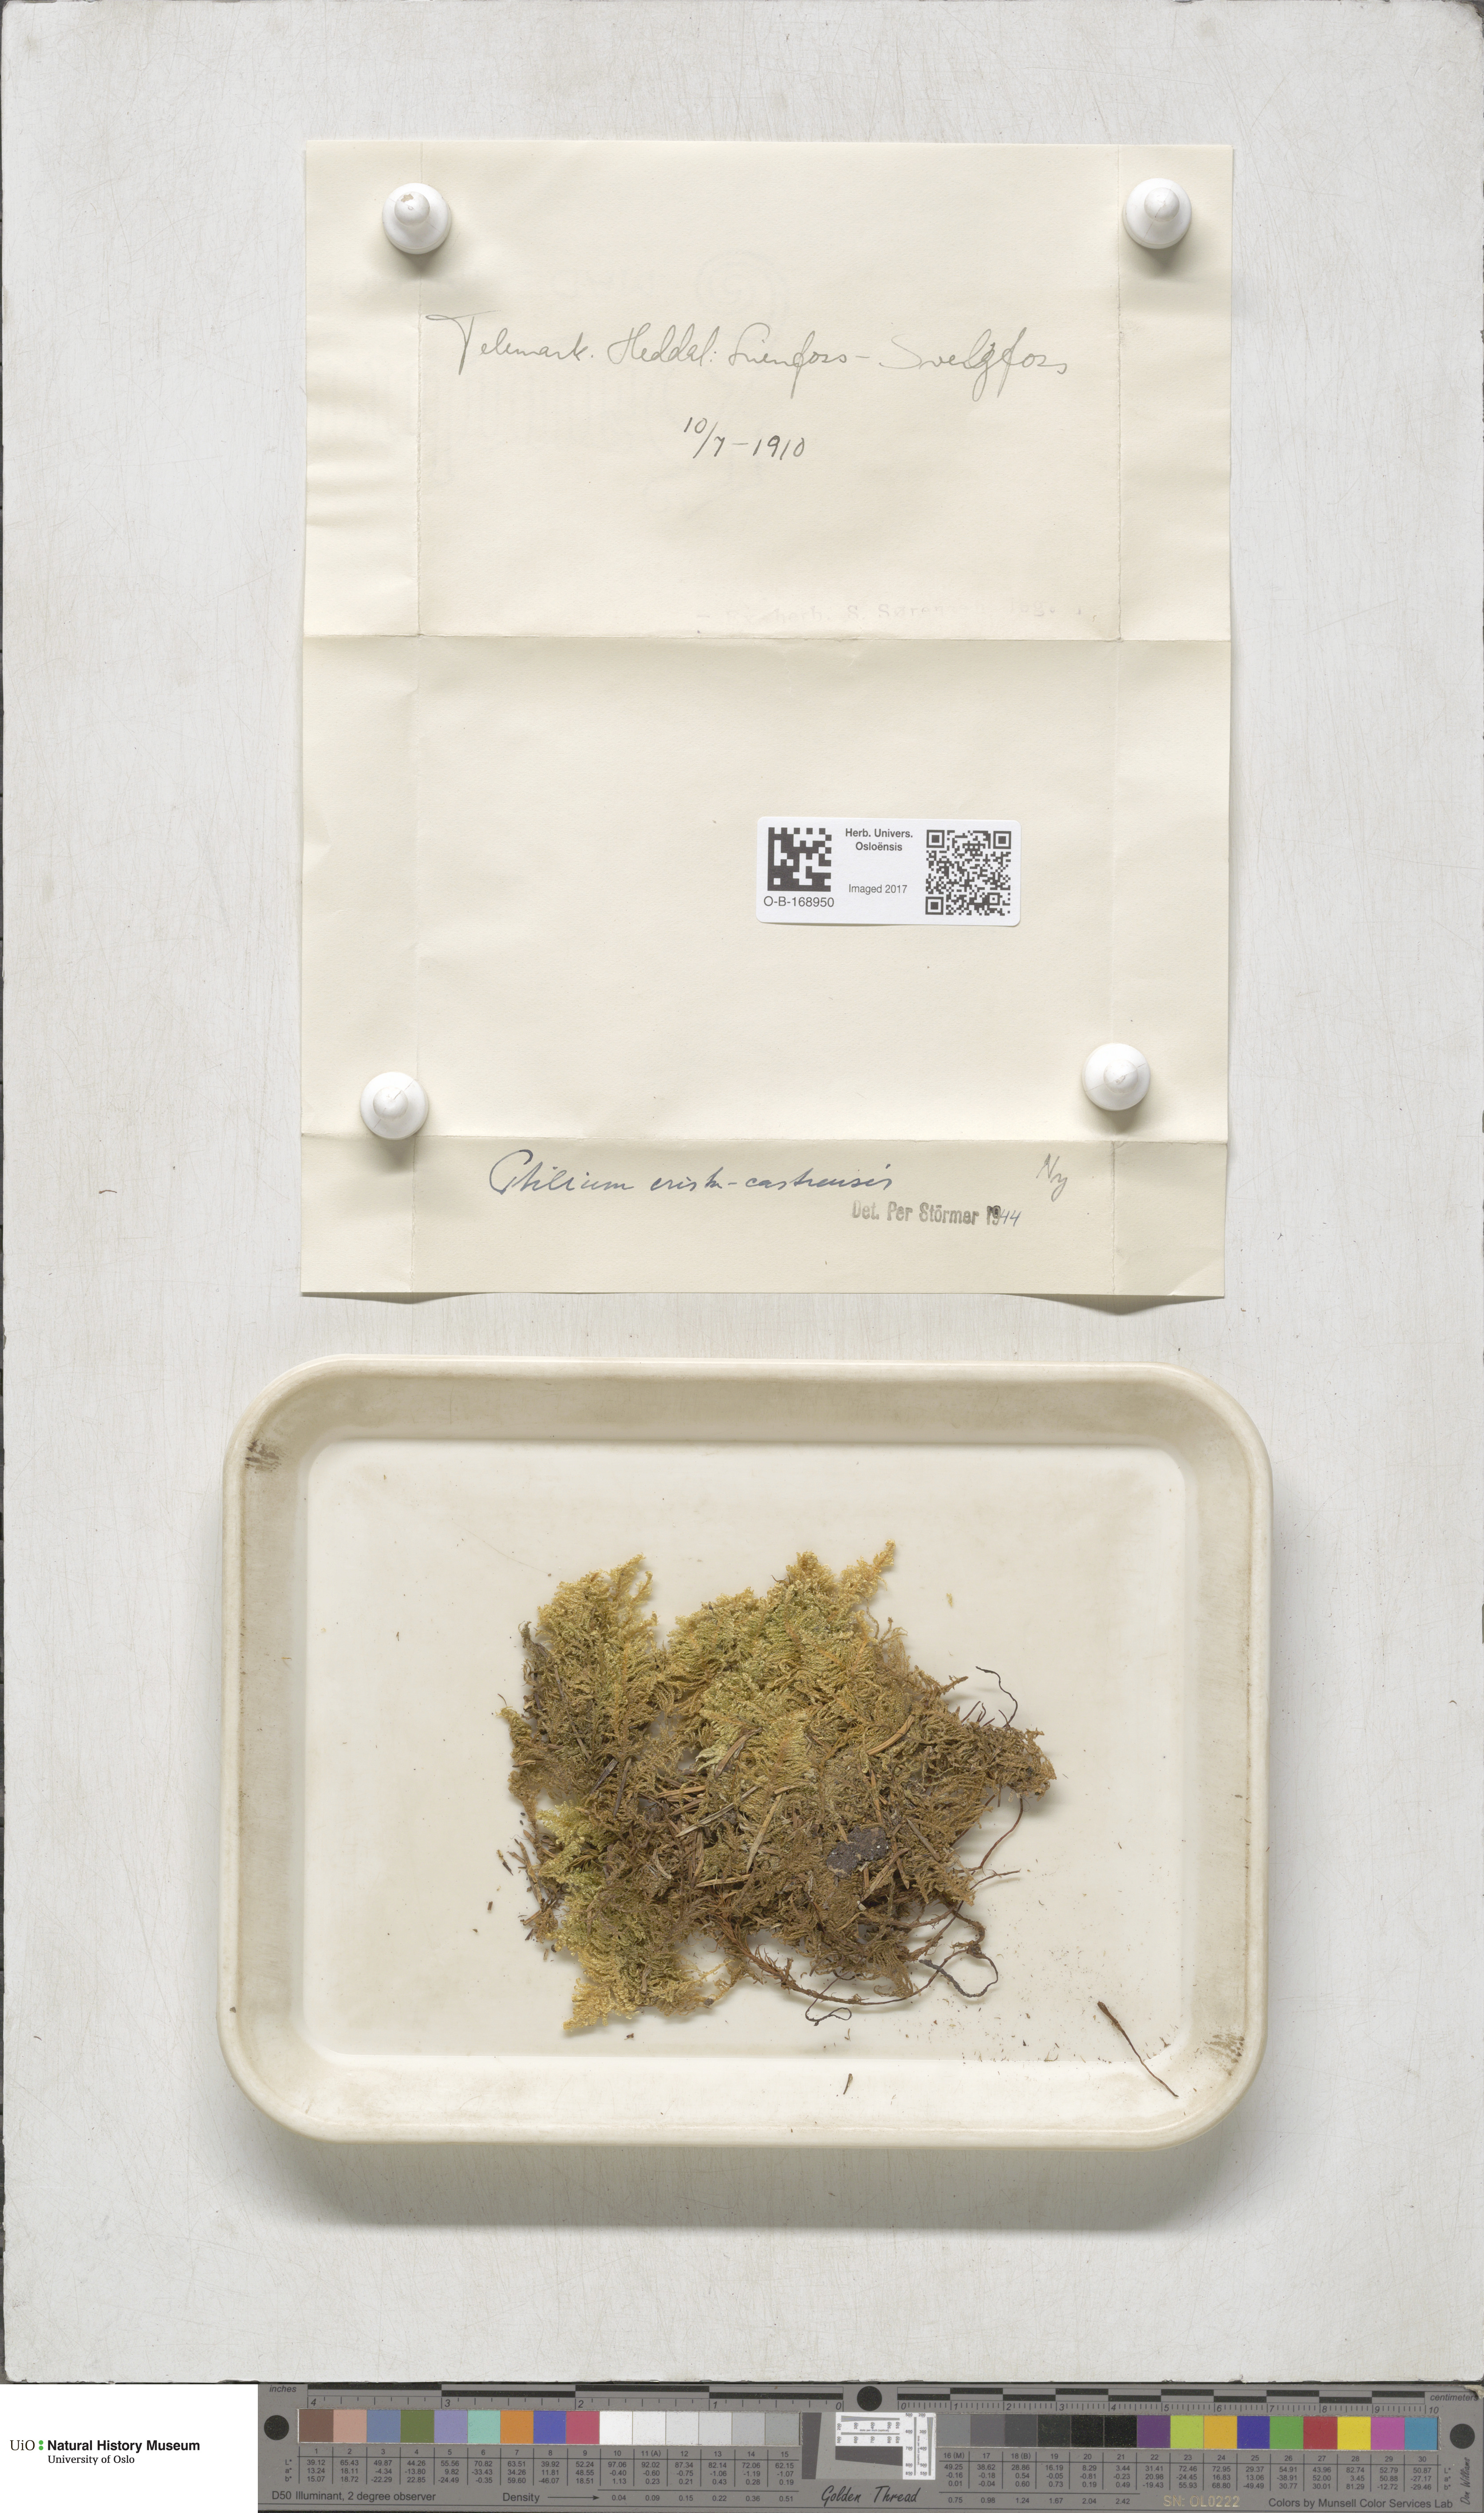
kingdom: Plantae
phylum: Bryophyta
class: Bryopsida
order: Hypnales
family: Pylaisiaceae
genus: Ptilium
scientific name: Ptilium crista-castrensis
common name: Knight's plume moss
